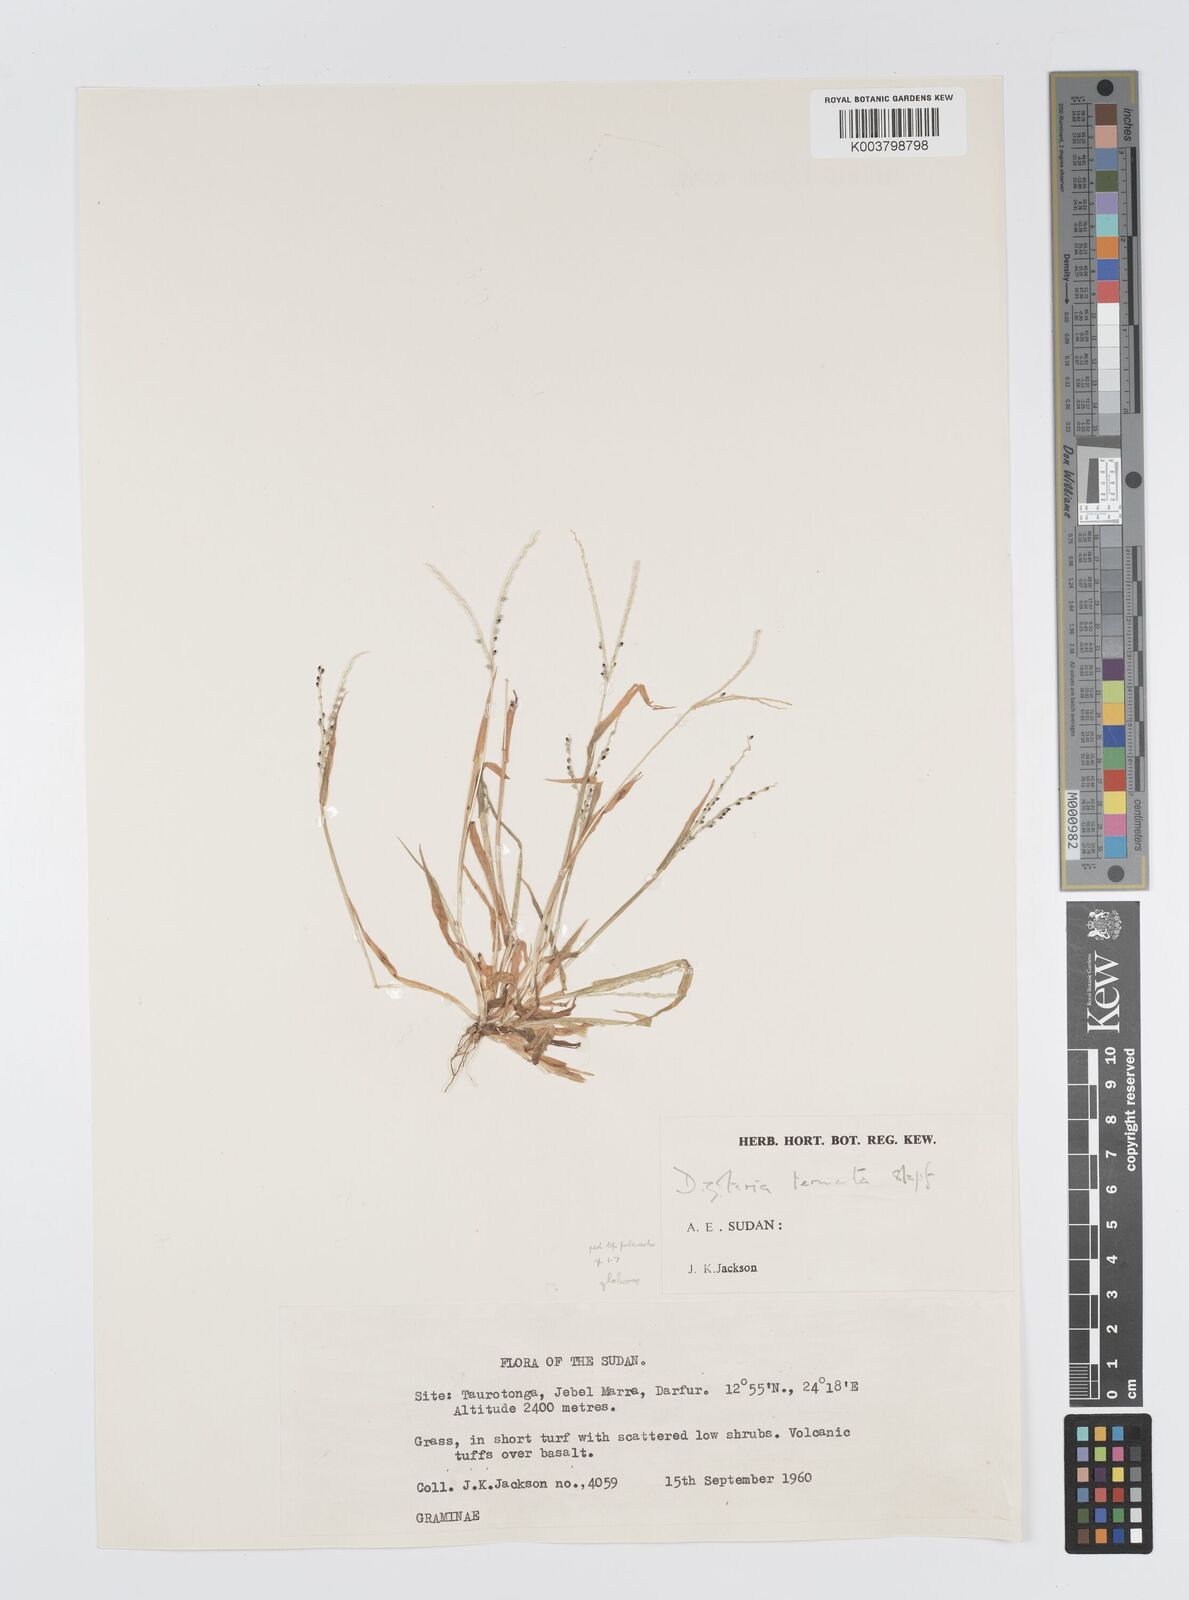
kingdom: Plantae
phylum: Tracheophyta
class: Liliopsida
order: Poales
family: Poaceae
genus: Digitaria
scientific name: Digitaria ternata
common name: Blackseed crabgrass
